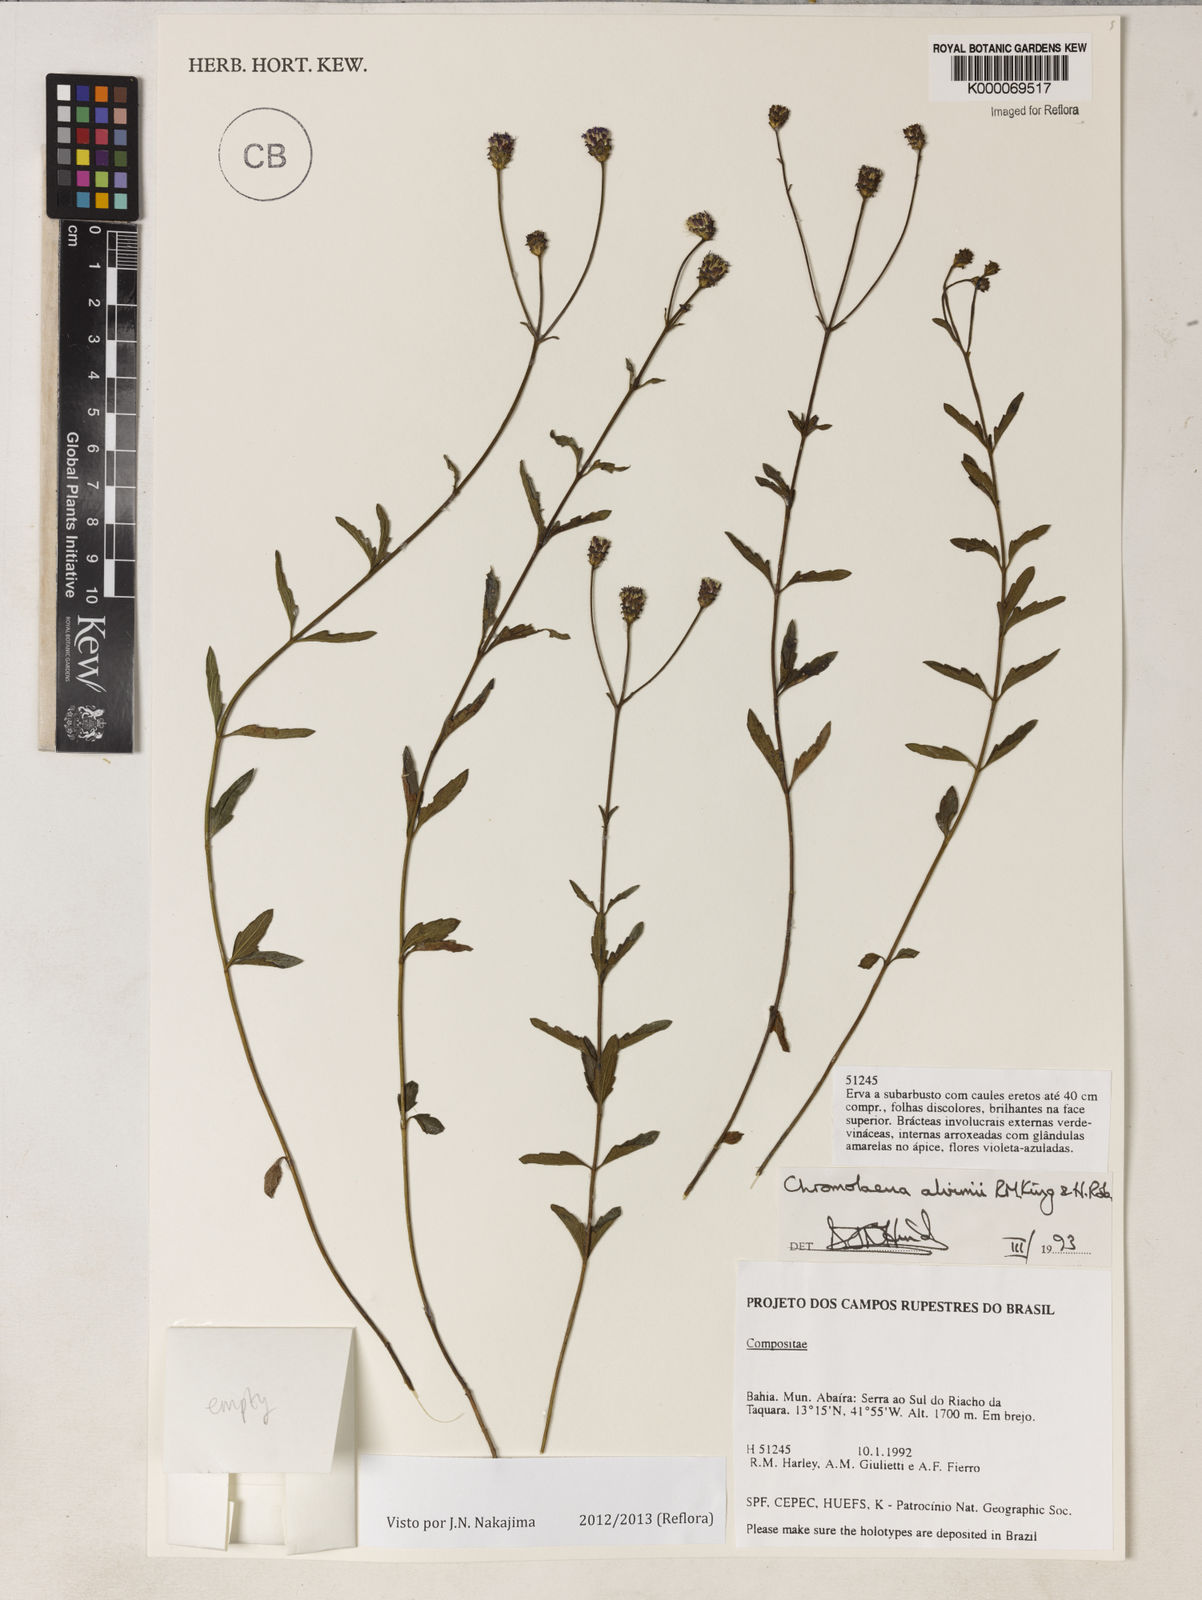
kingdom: Plantae
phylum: Tracheophyta
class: Magnoliopsida
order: Asterales
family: Asteraceae
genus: Chromolaena
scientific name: Chromolaena alvimii
